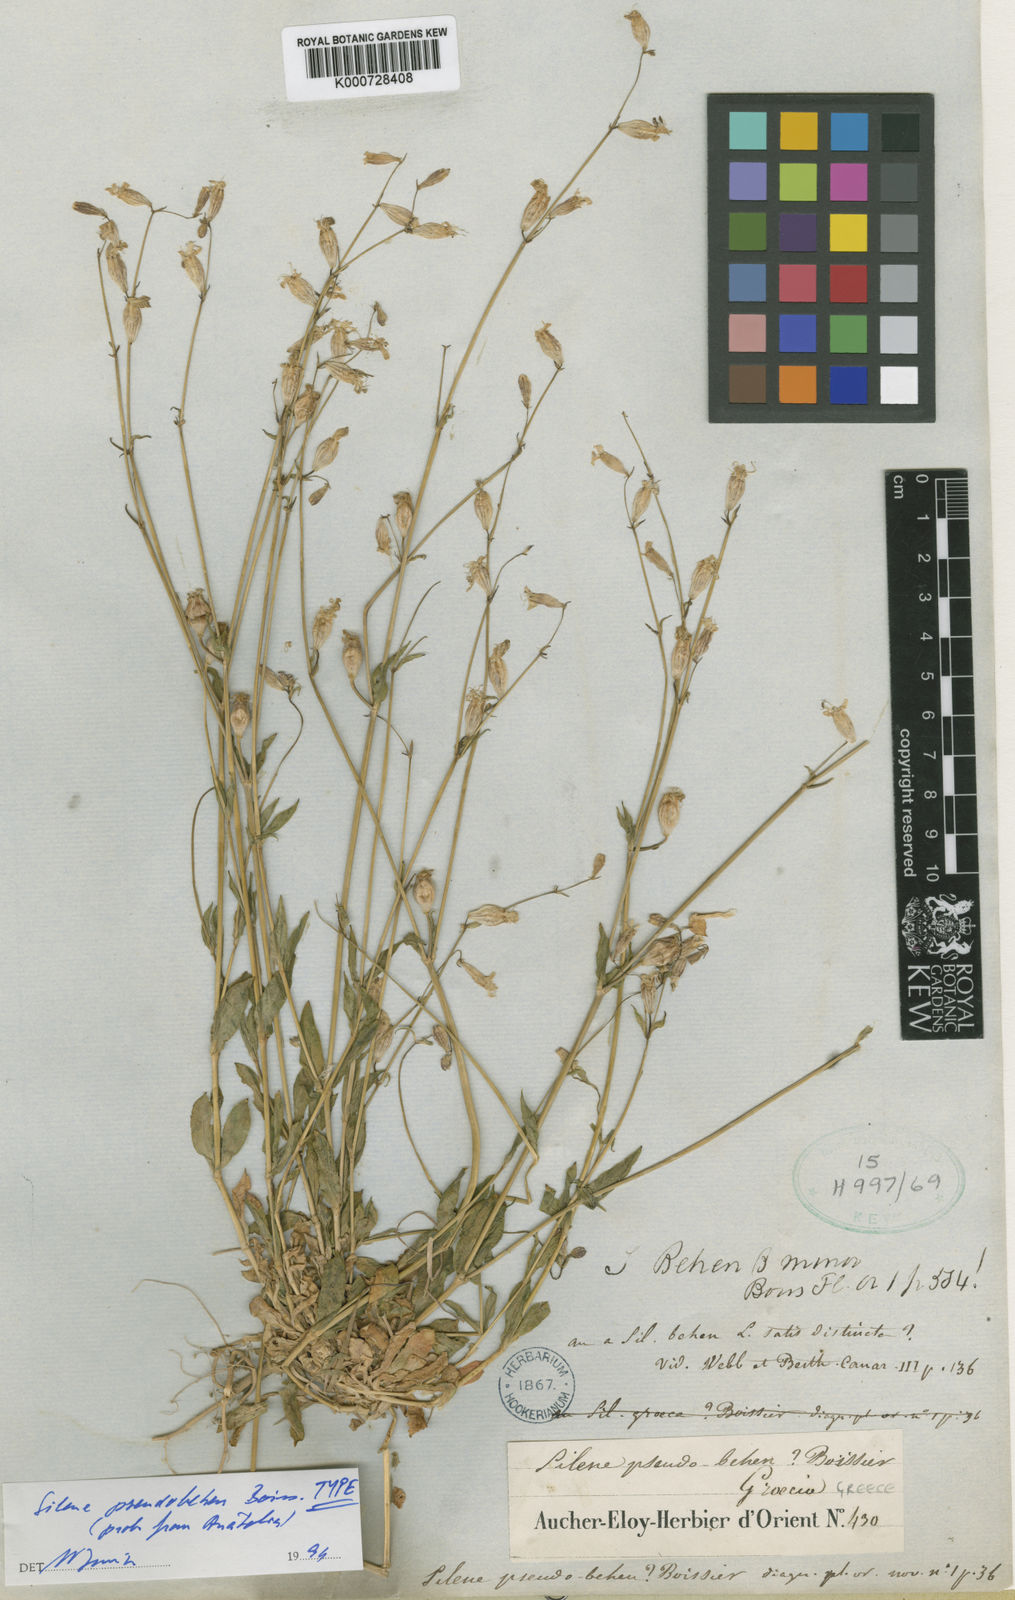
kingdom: Plantae
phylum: Tracheophyta
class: Magnoliopsida
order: Caryophyllales
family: Caryophyllaceae
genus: Silene
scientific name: Silene pseudobehen
